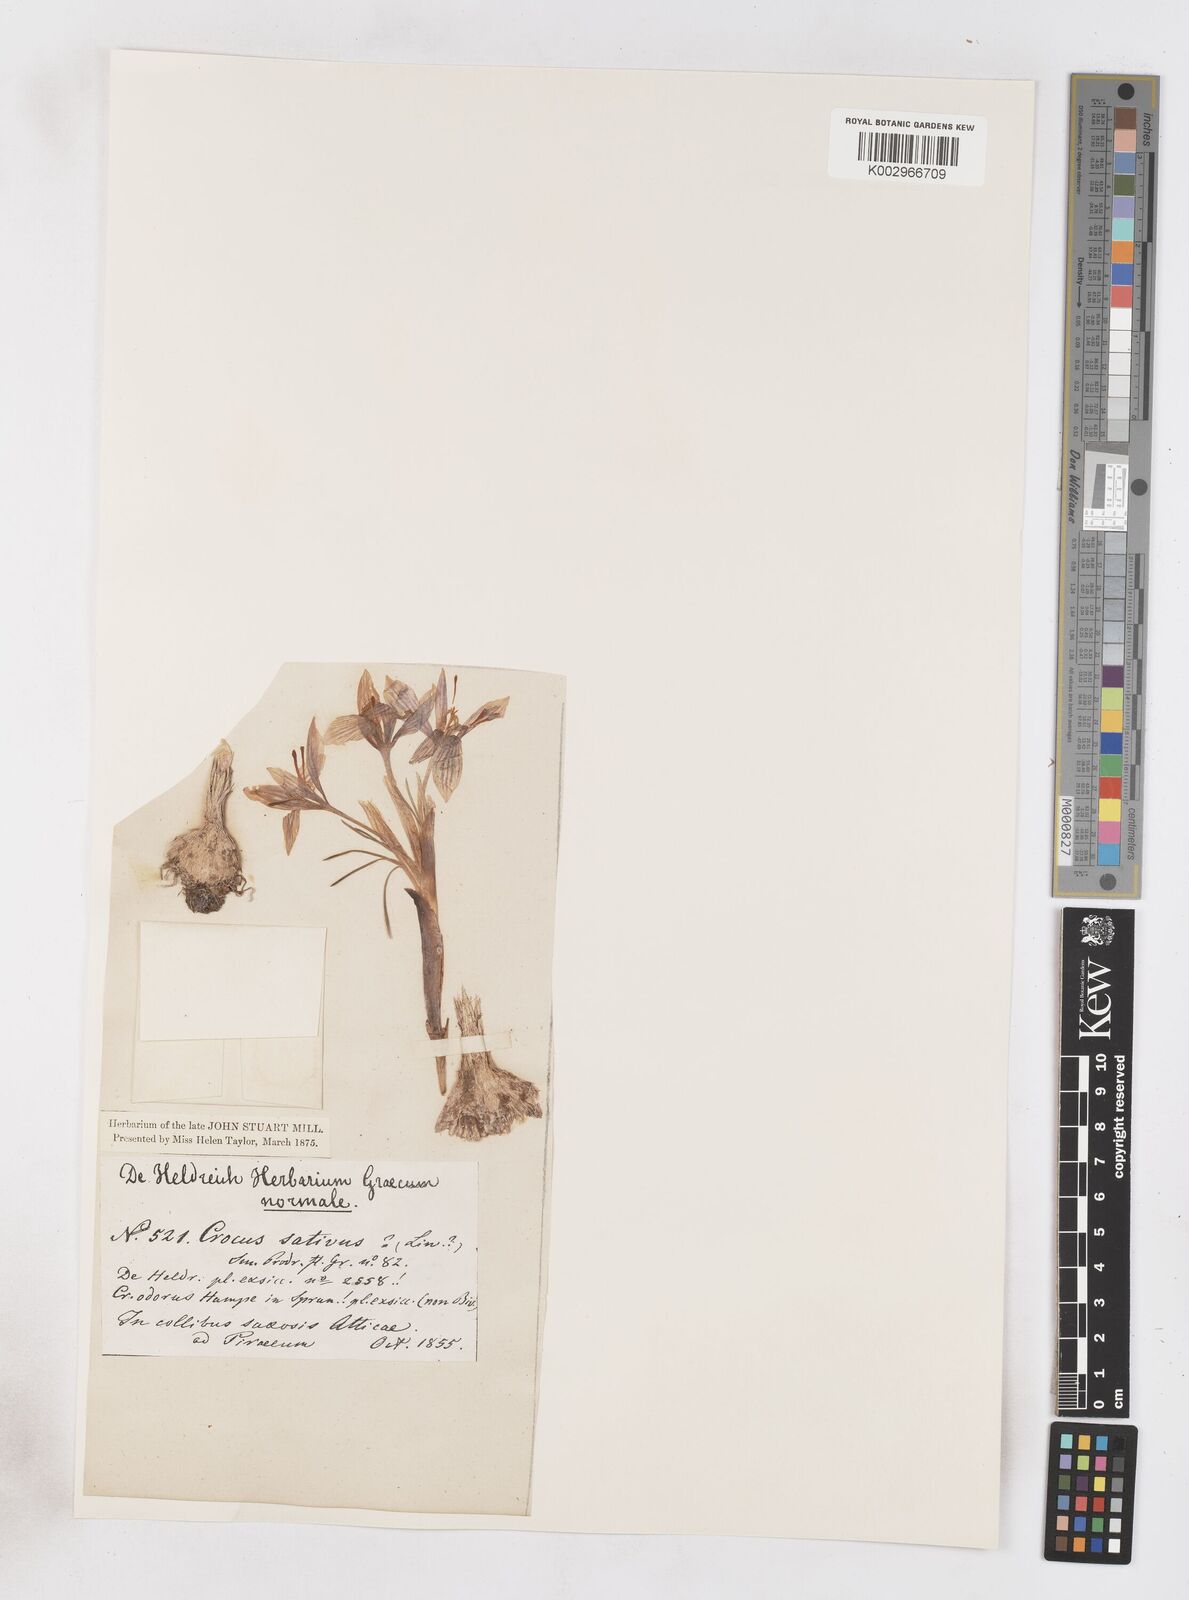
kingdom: Plantae
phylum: Tracheophyta
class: Liliopsida
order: Asparagales
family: Iridaceae
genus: Crocus
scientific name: Crocus cartwrightianus
